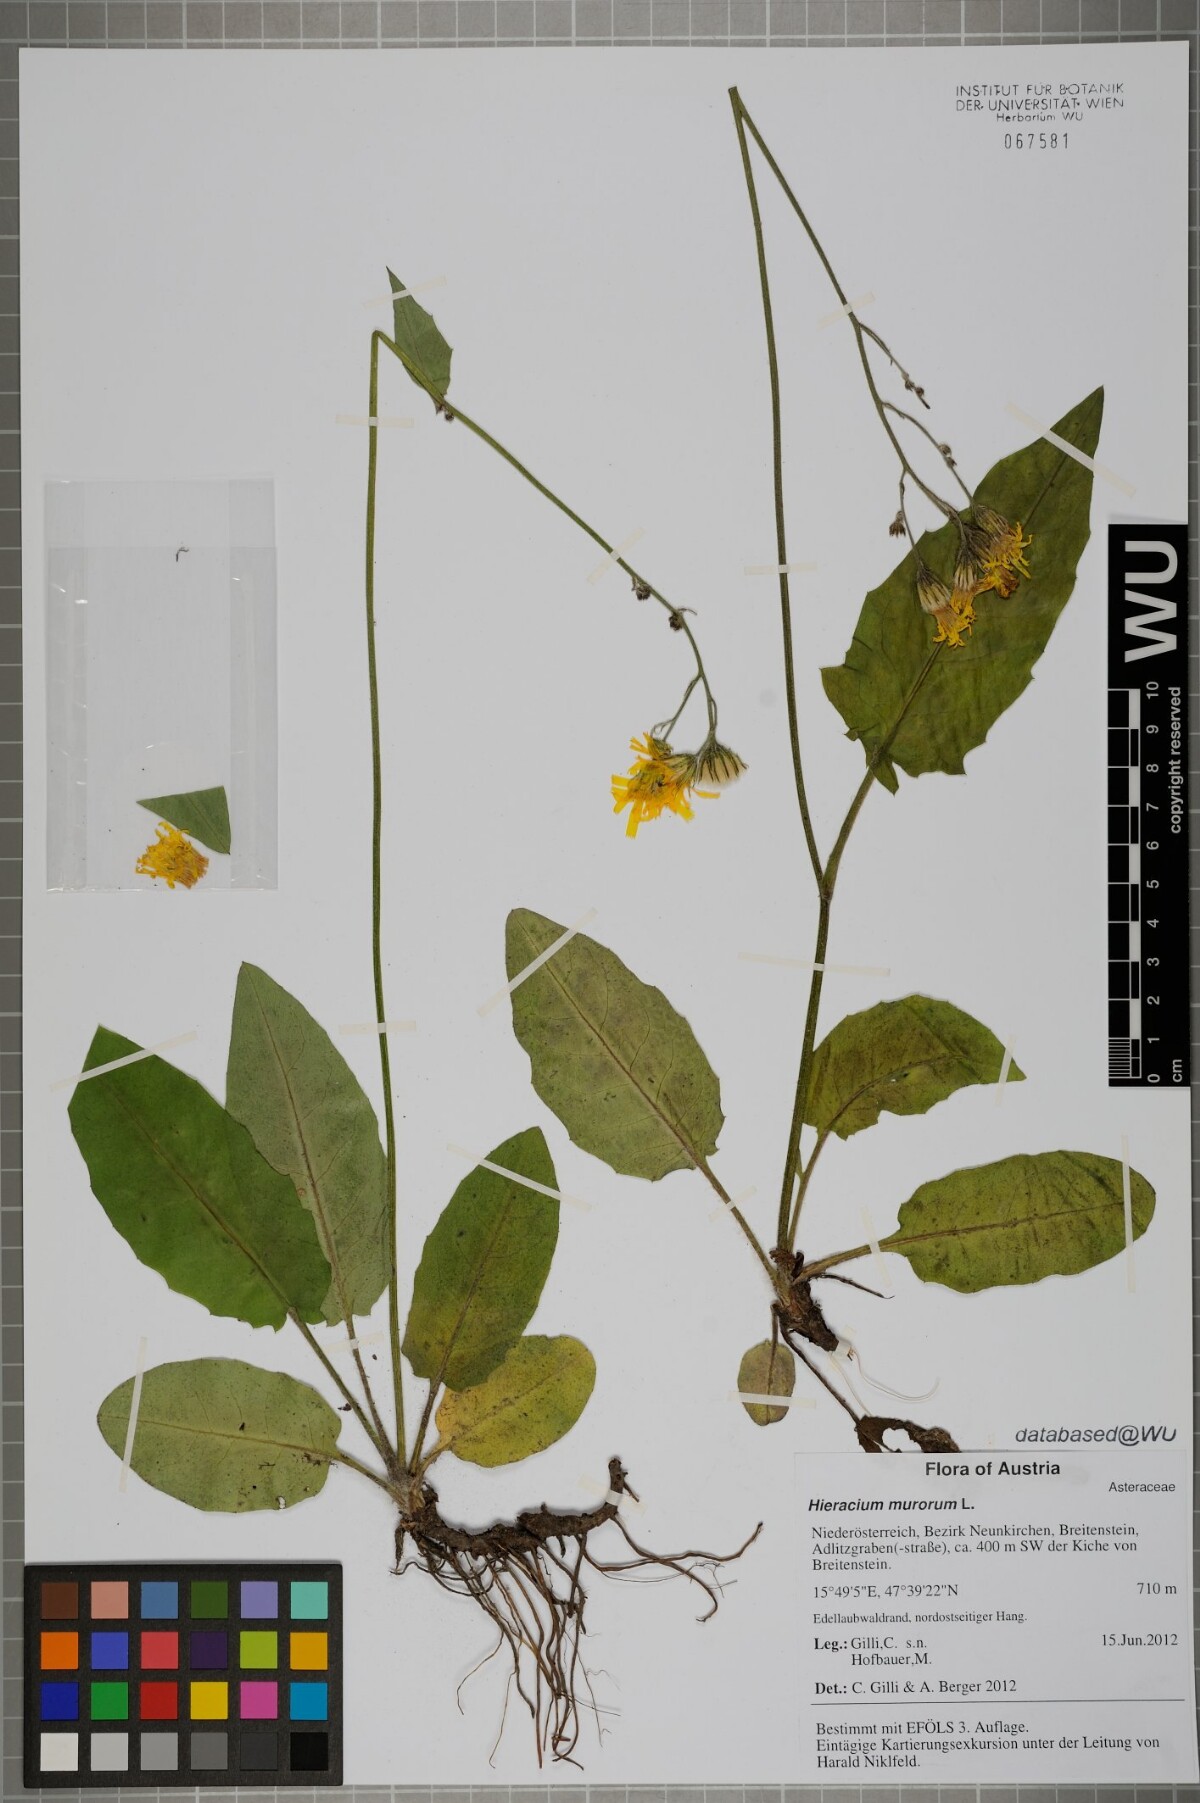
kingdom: Plantae
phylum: Tracheophyta
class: Magnoliopsida
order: Asterales
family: Asteraceae
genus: Hieracium
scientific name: Hieracium murorum
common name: Wall hawkweed
